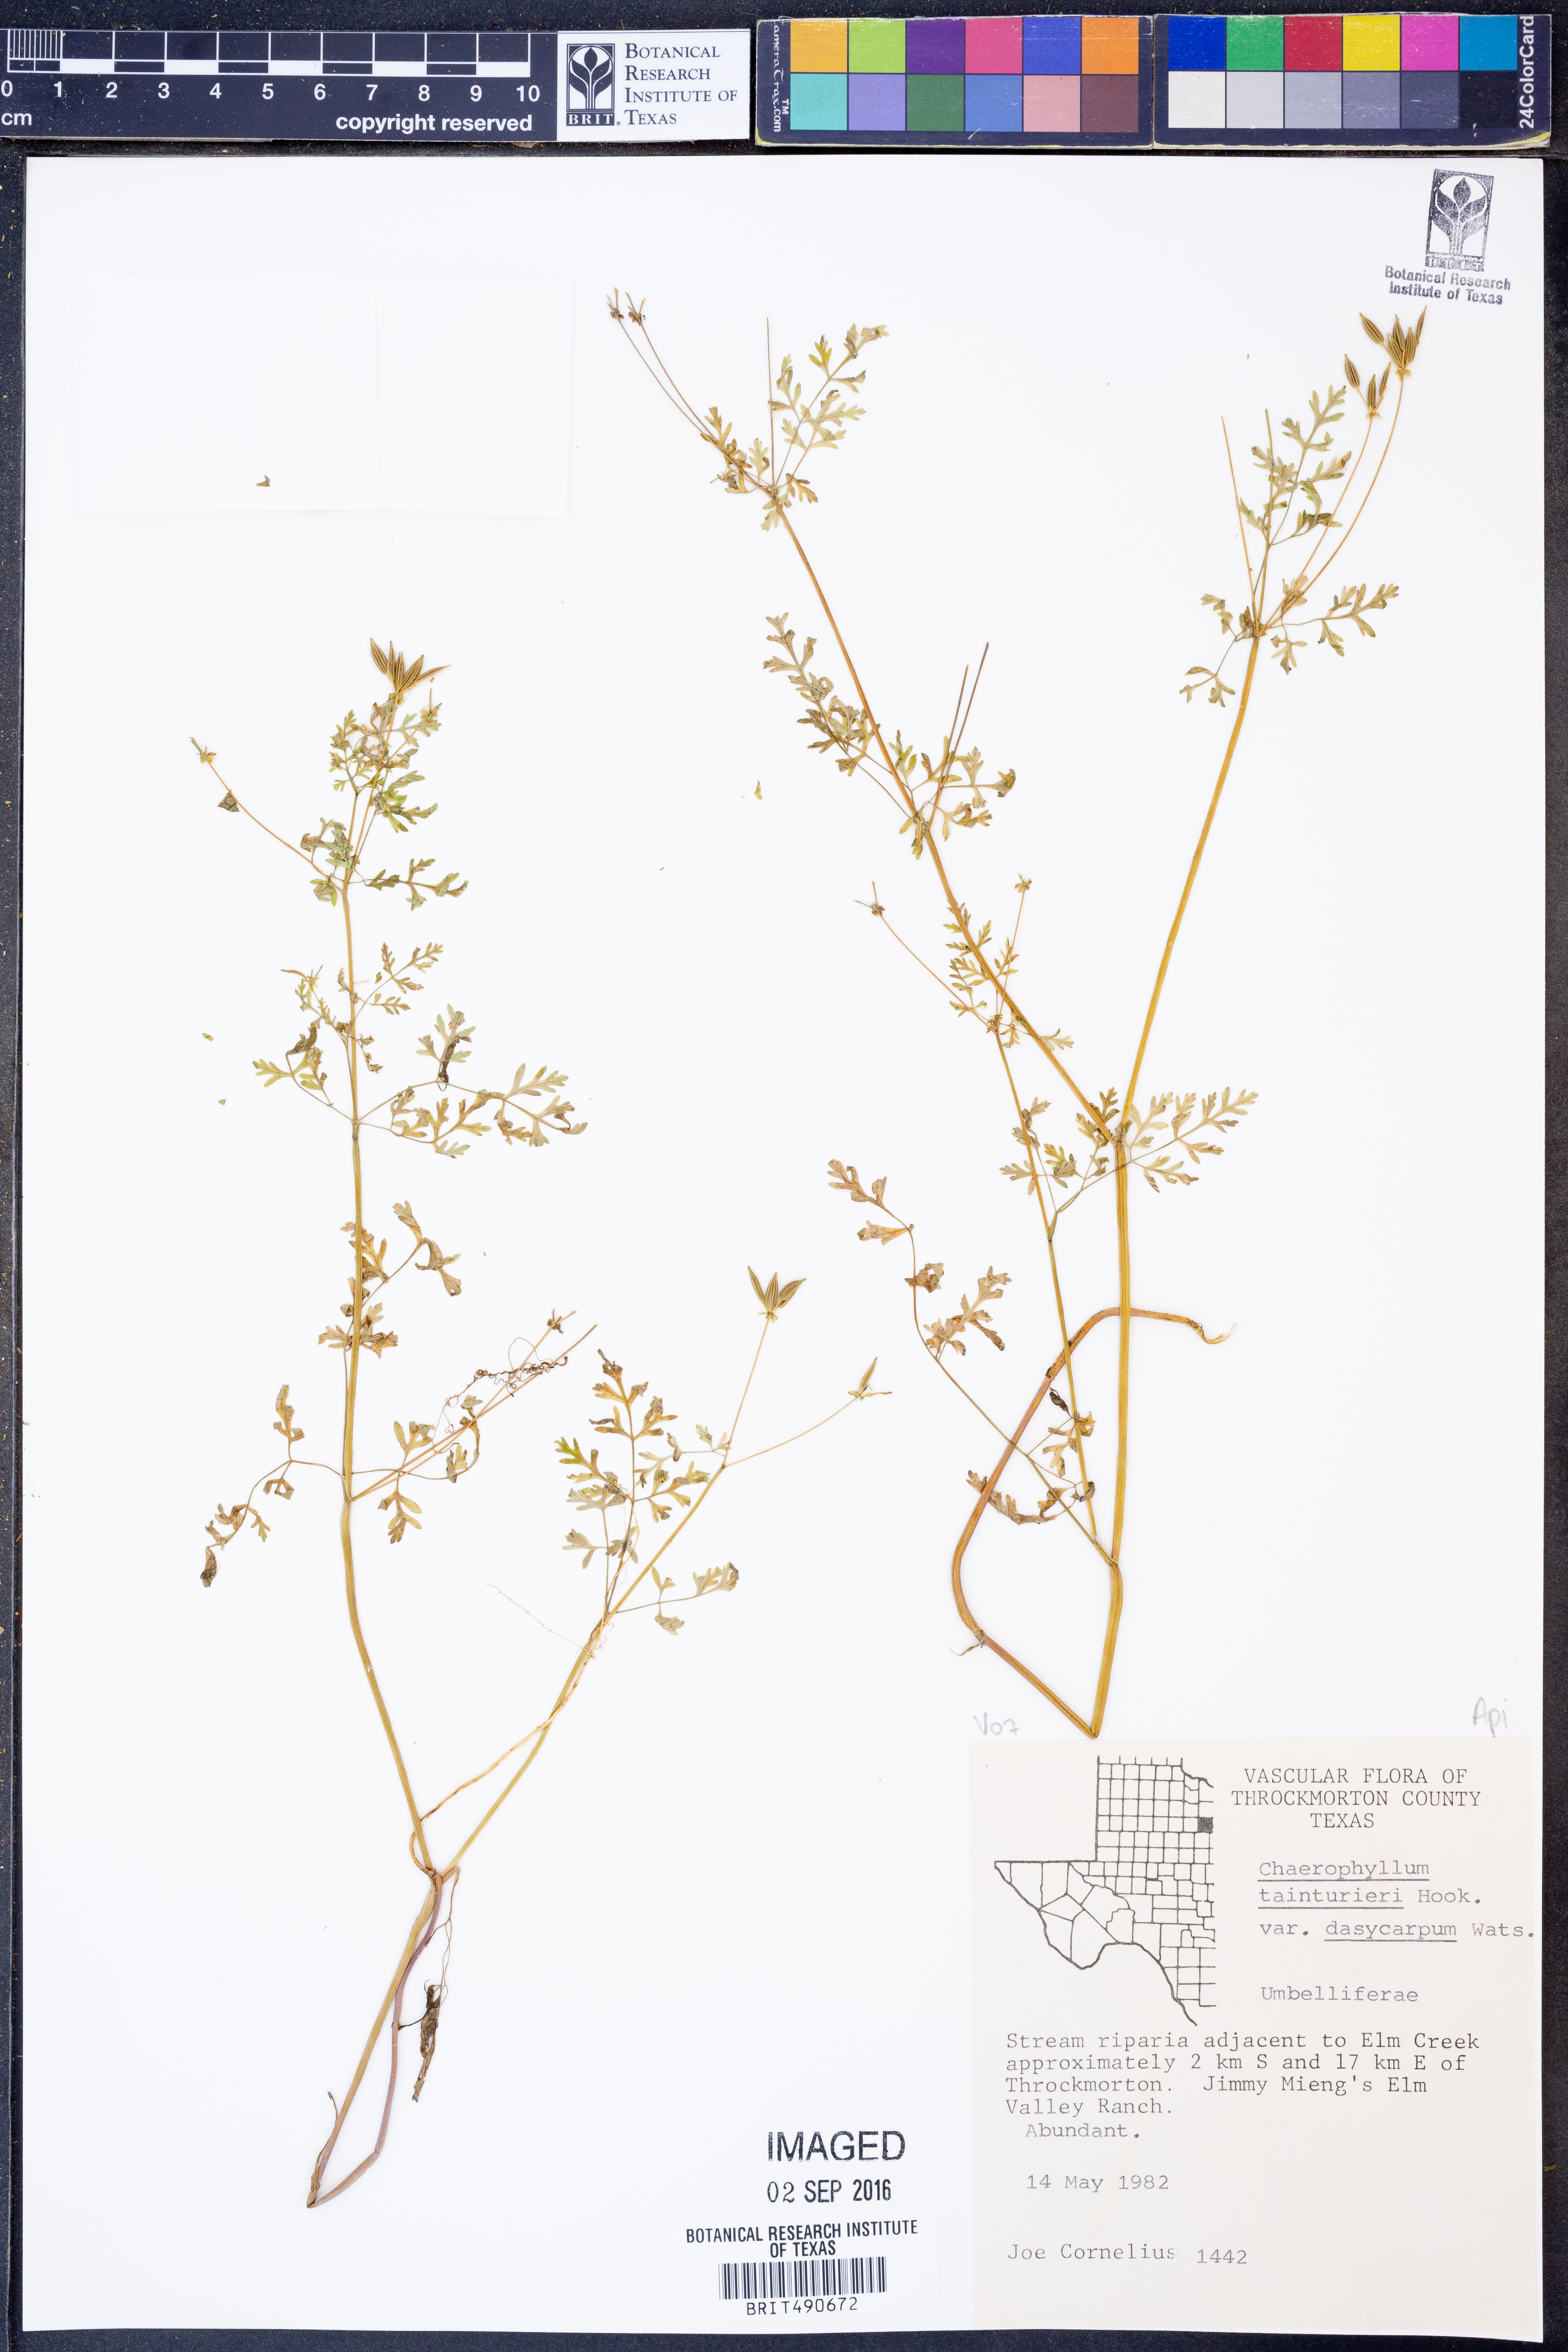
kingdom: Plantae
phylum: Tracheophyta
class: Magnoliopsida
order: Apiales
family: Apiaceae
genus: Chaerophyllum
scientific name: Chaerophyllum dasycarpum
